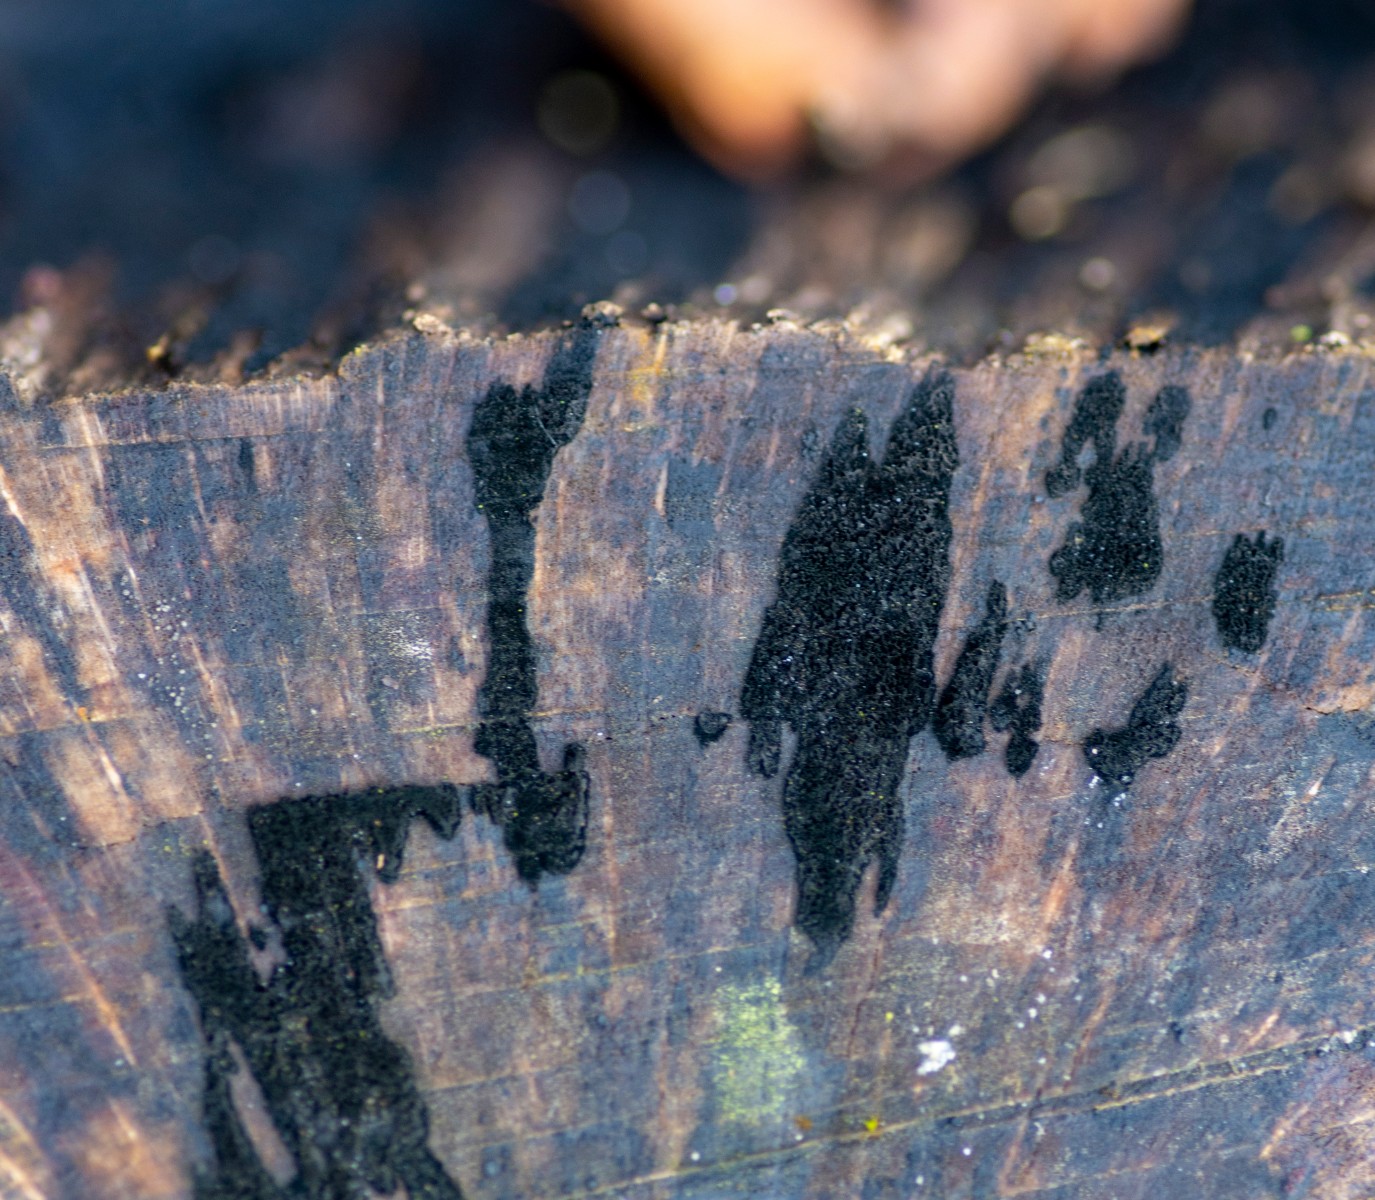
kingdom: Fungi
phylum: Ascomycota
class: Leotiomycetes
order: Helotiales
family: Helotiaceae
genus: Bispora
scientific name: Bispora pallescens
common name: måtte-snitskive
